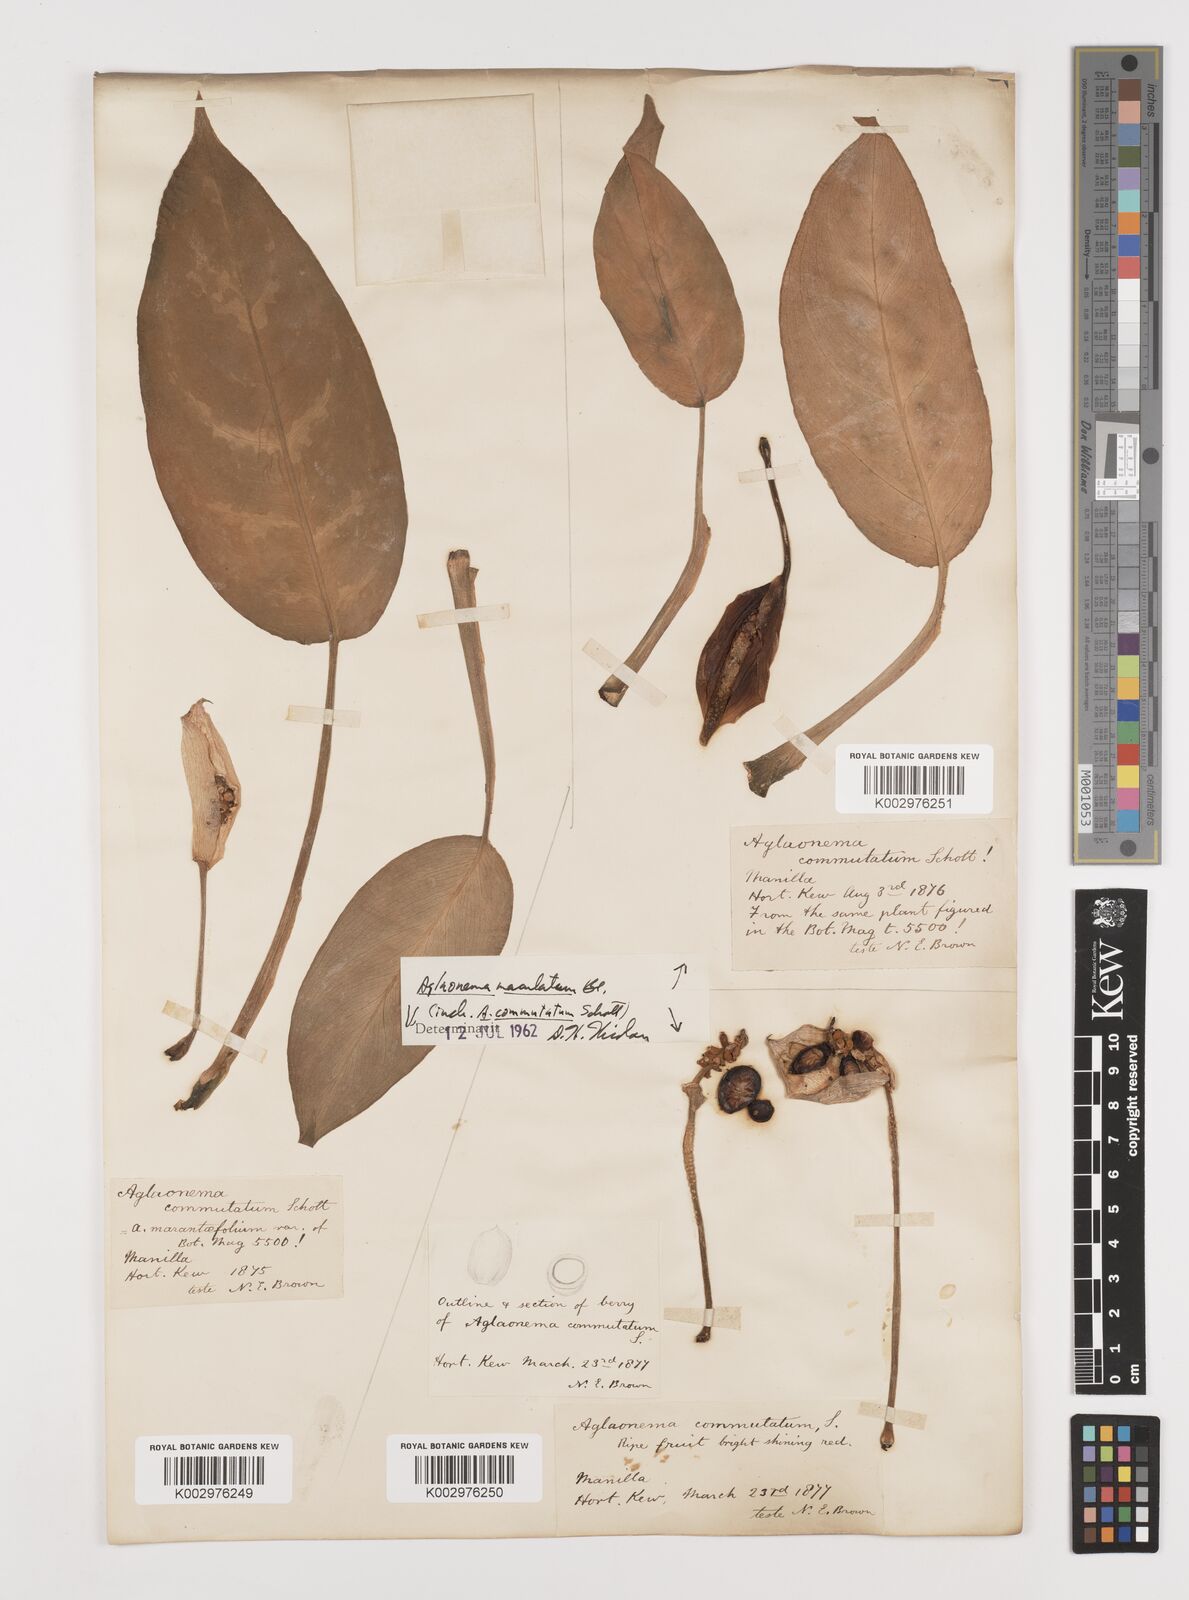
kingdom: Plantae
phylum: Tracheophyta
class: Liliopsida
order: Alismatales
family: Araceae
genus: Aglaonema
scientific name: Aglaonema commutatum
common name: Philippine evergreen
